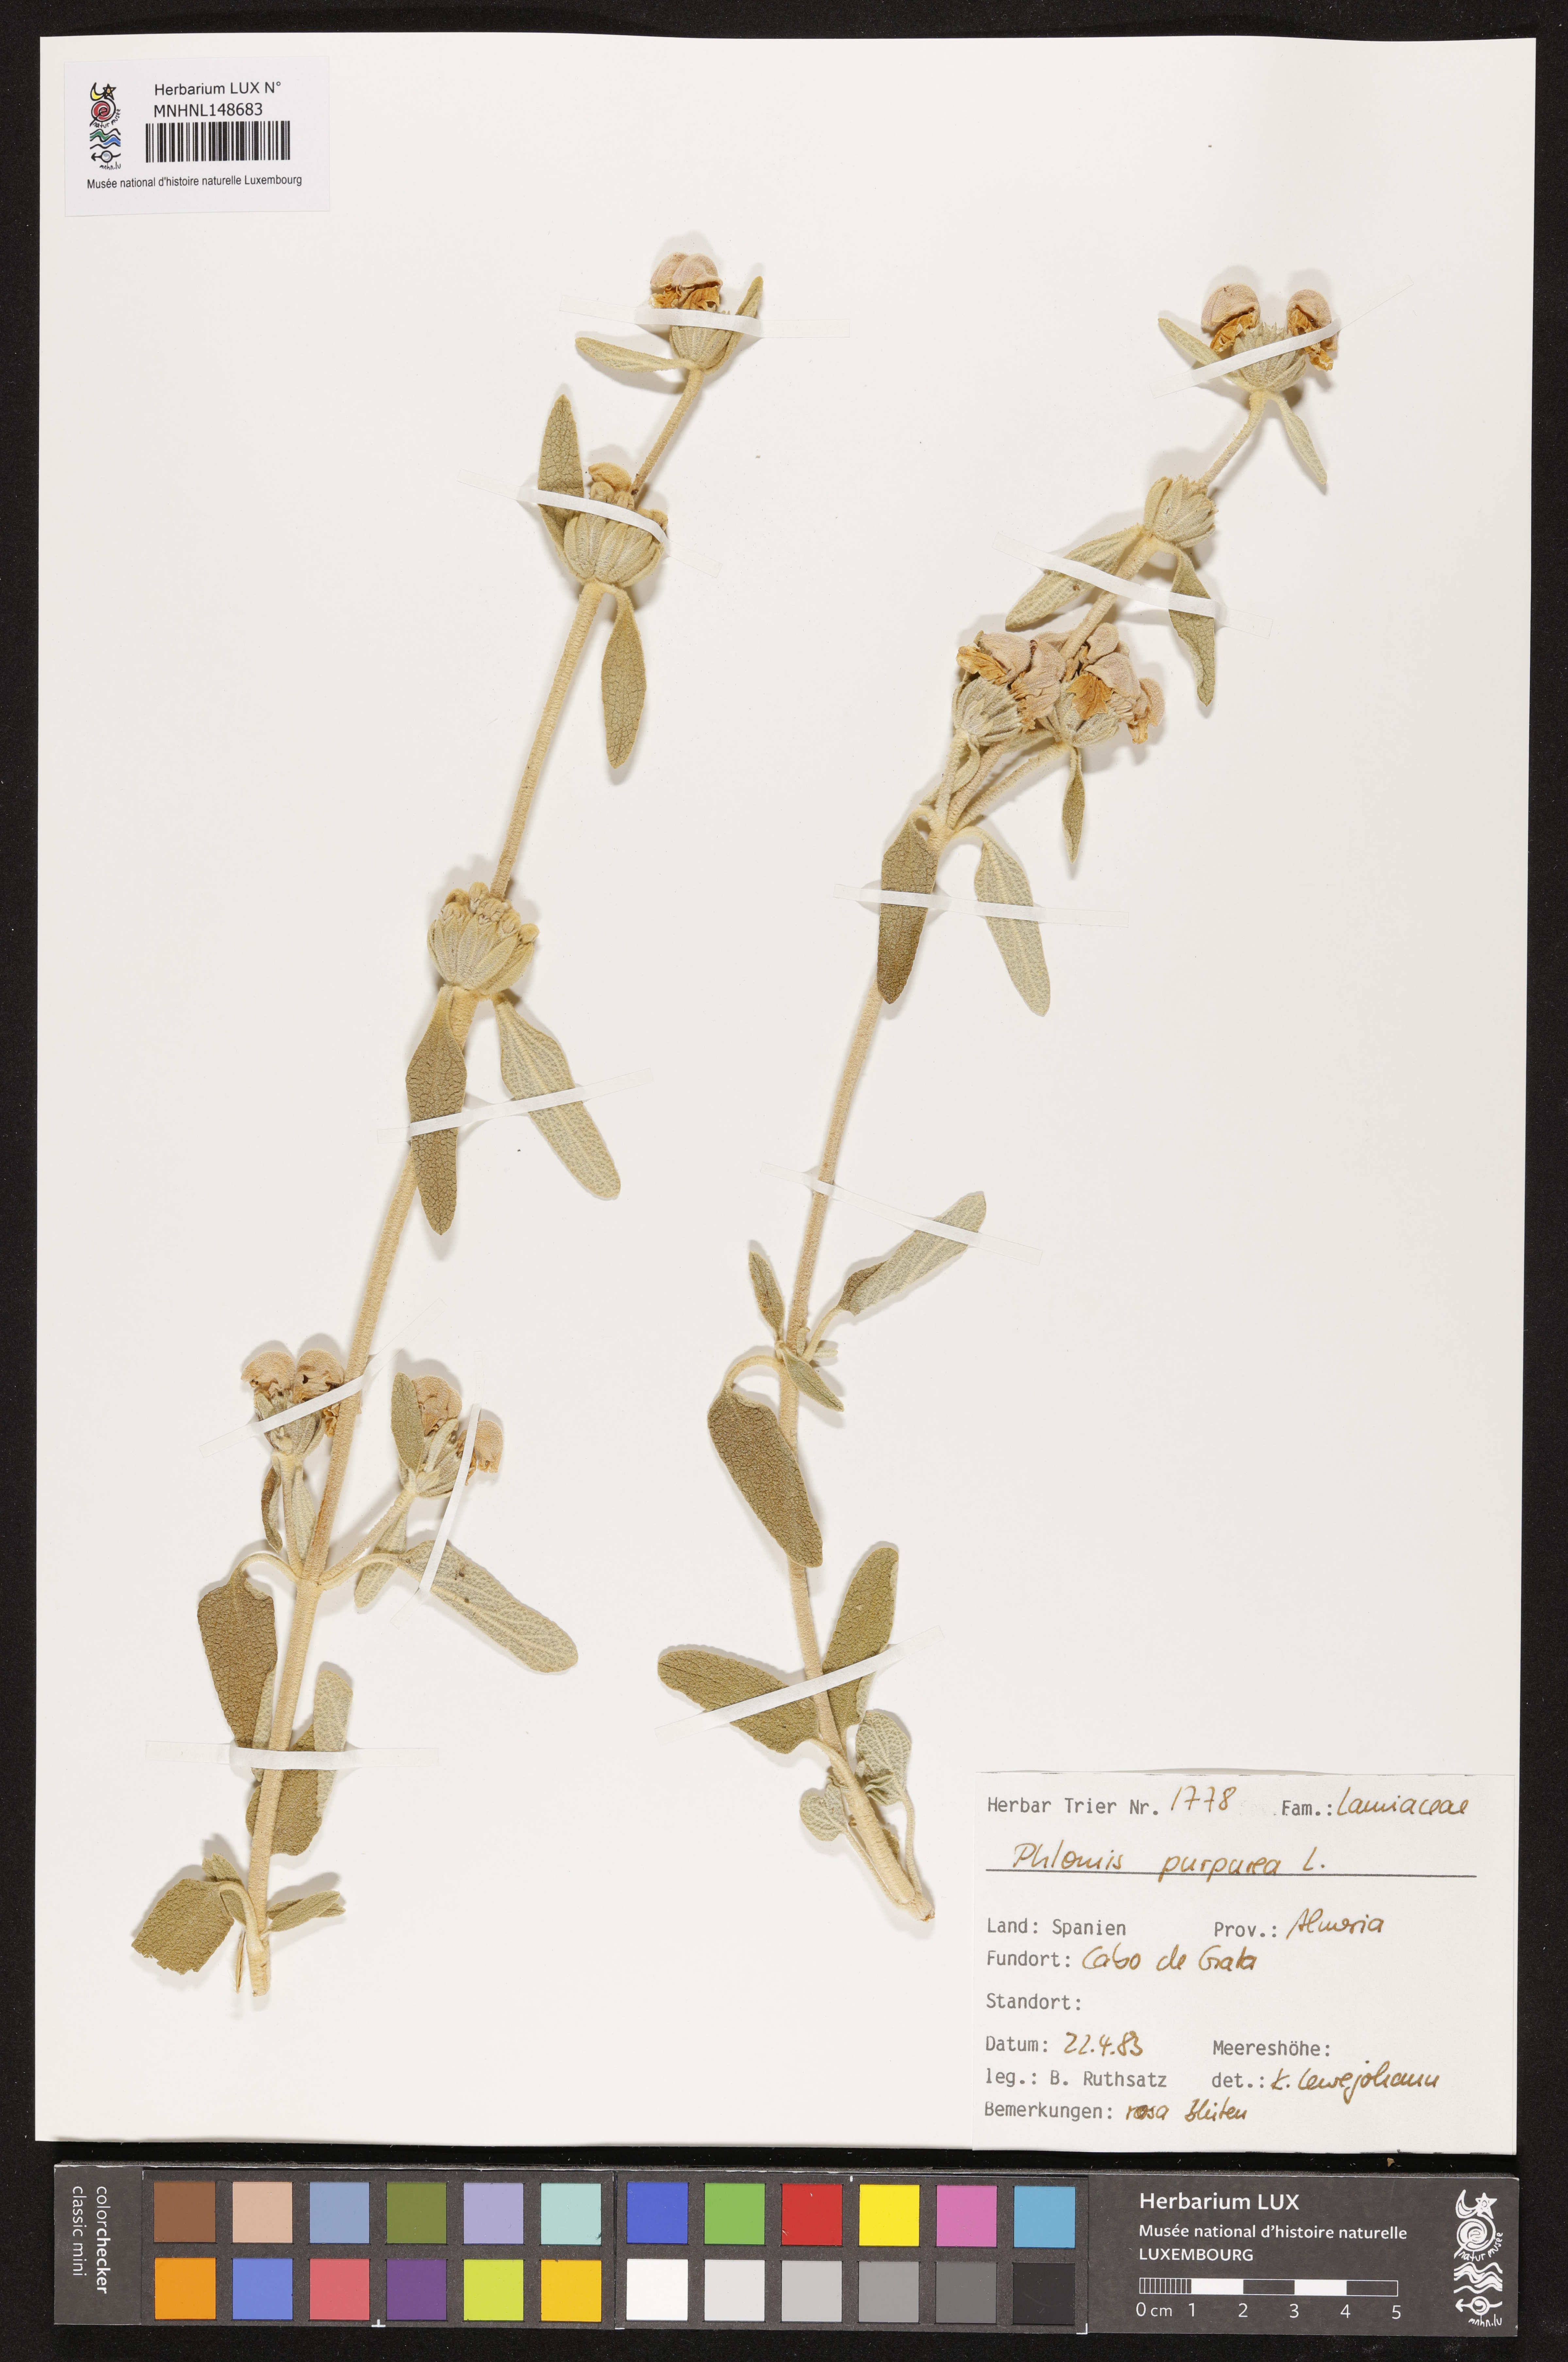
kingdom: Plantae
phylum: Tracheophyta
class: Magnoliopsida
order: Lamiales
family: Lamiaceae
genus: Phlomis
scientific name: Phlomis purpurea
